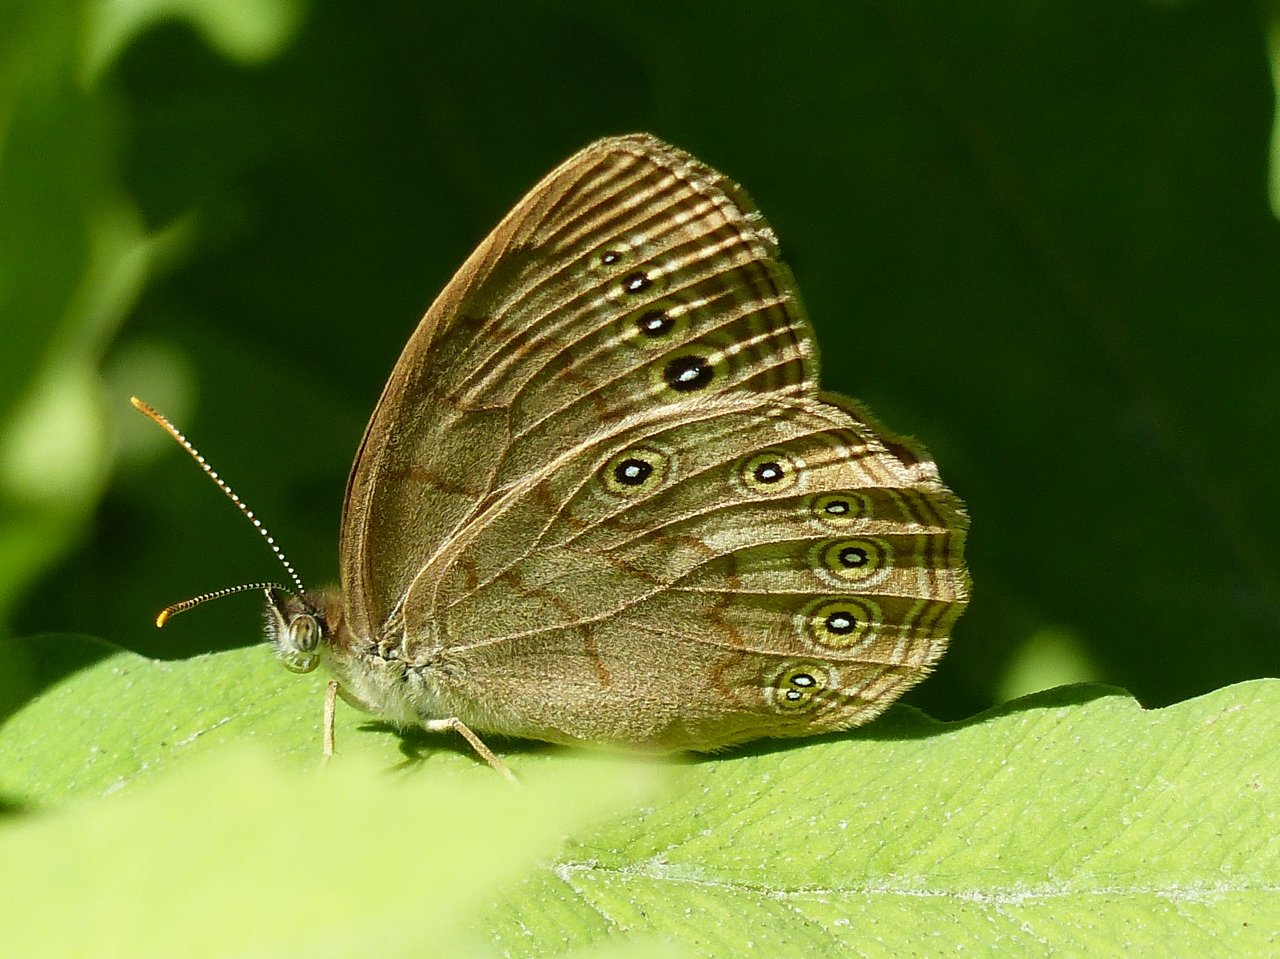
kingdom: Animalia
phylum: Arthropoda
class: Insecta
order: Lepidoptera
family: Nymphalidae
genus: Lethe
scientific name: Lethe eurydice
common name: Eyed Brown
